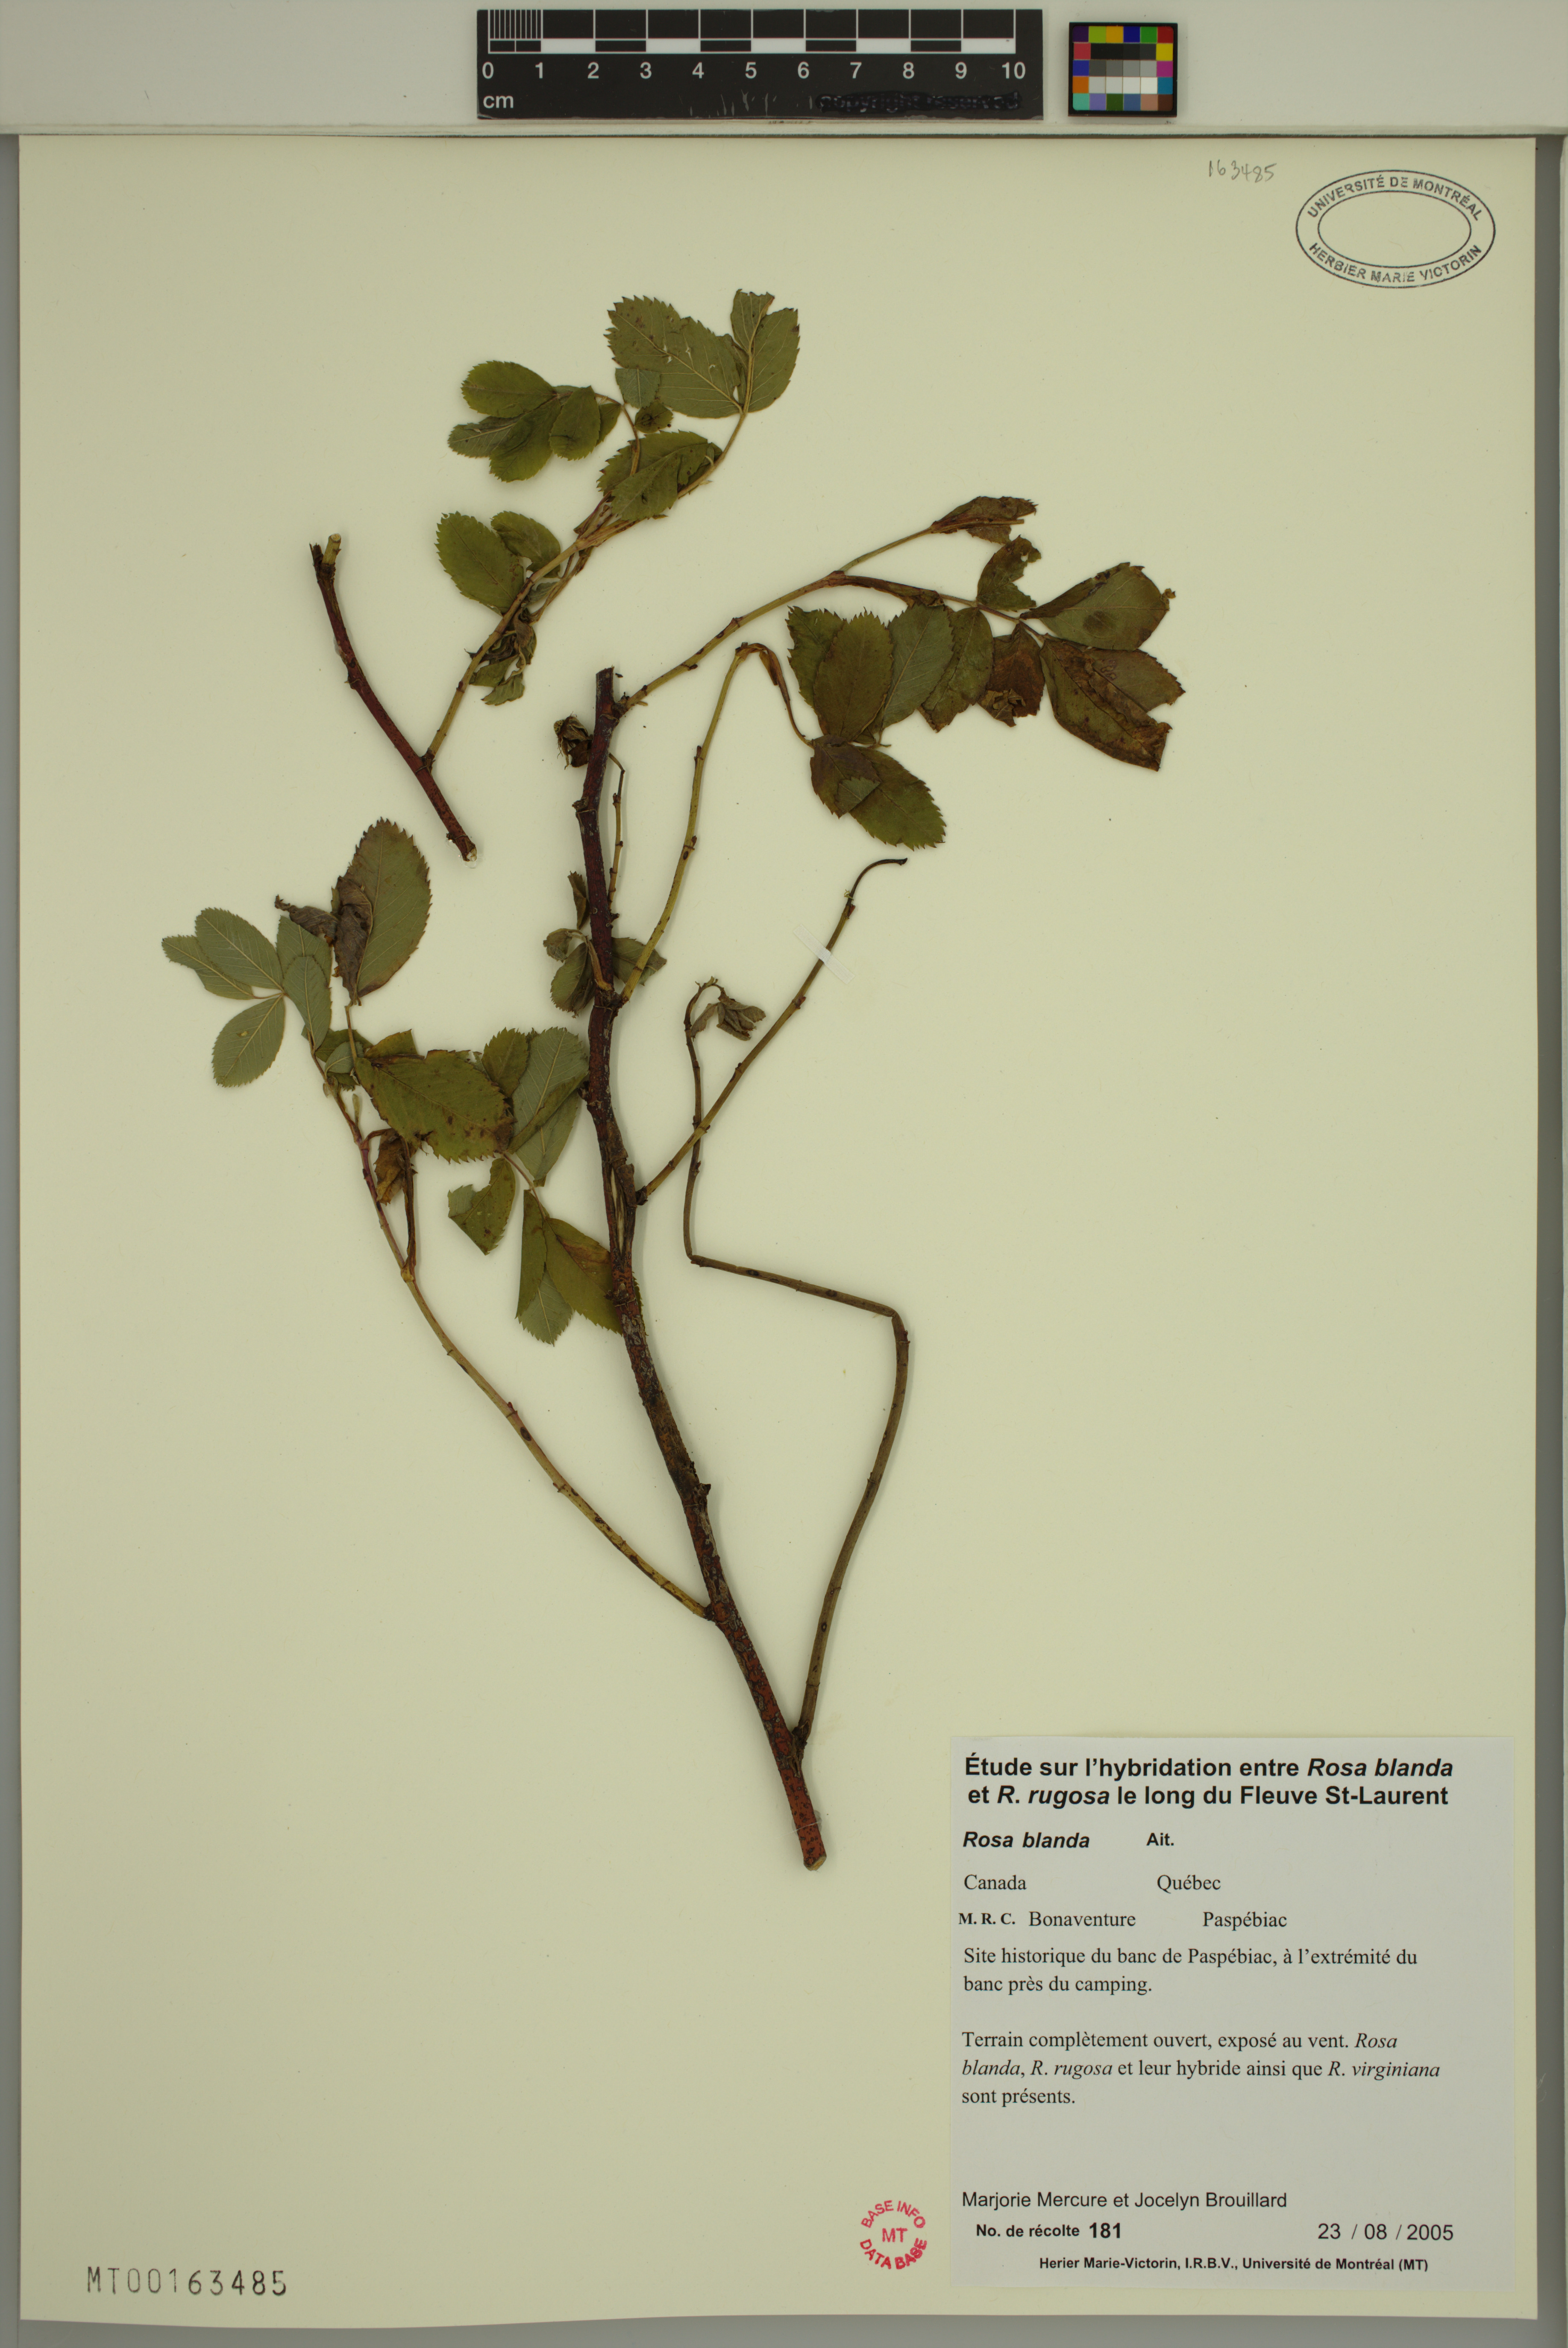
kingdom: Plantae
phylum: Tracheophyta
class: Magnoliopsida
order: Rosales
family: Rosaceae
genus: Rosa
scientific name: Rosa blanda
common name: Smooth rose
